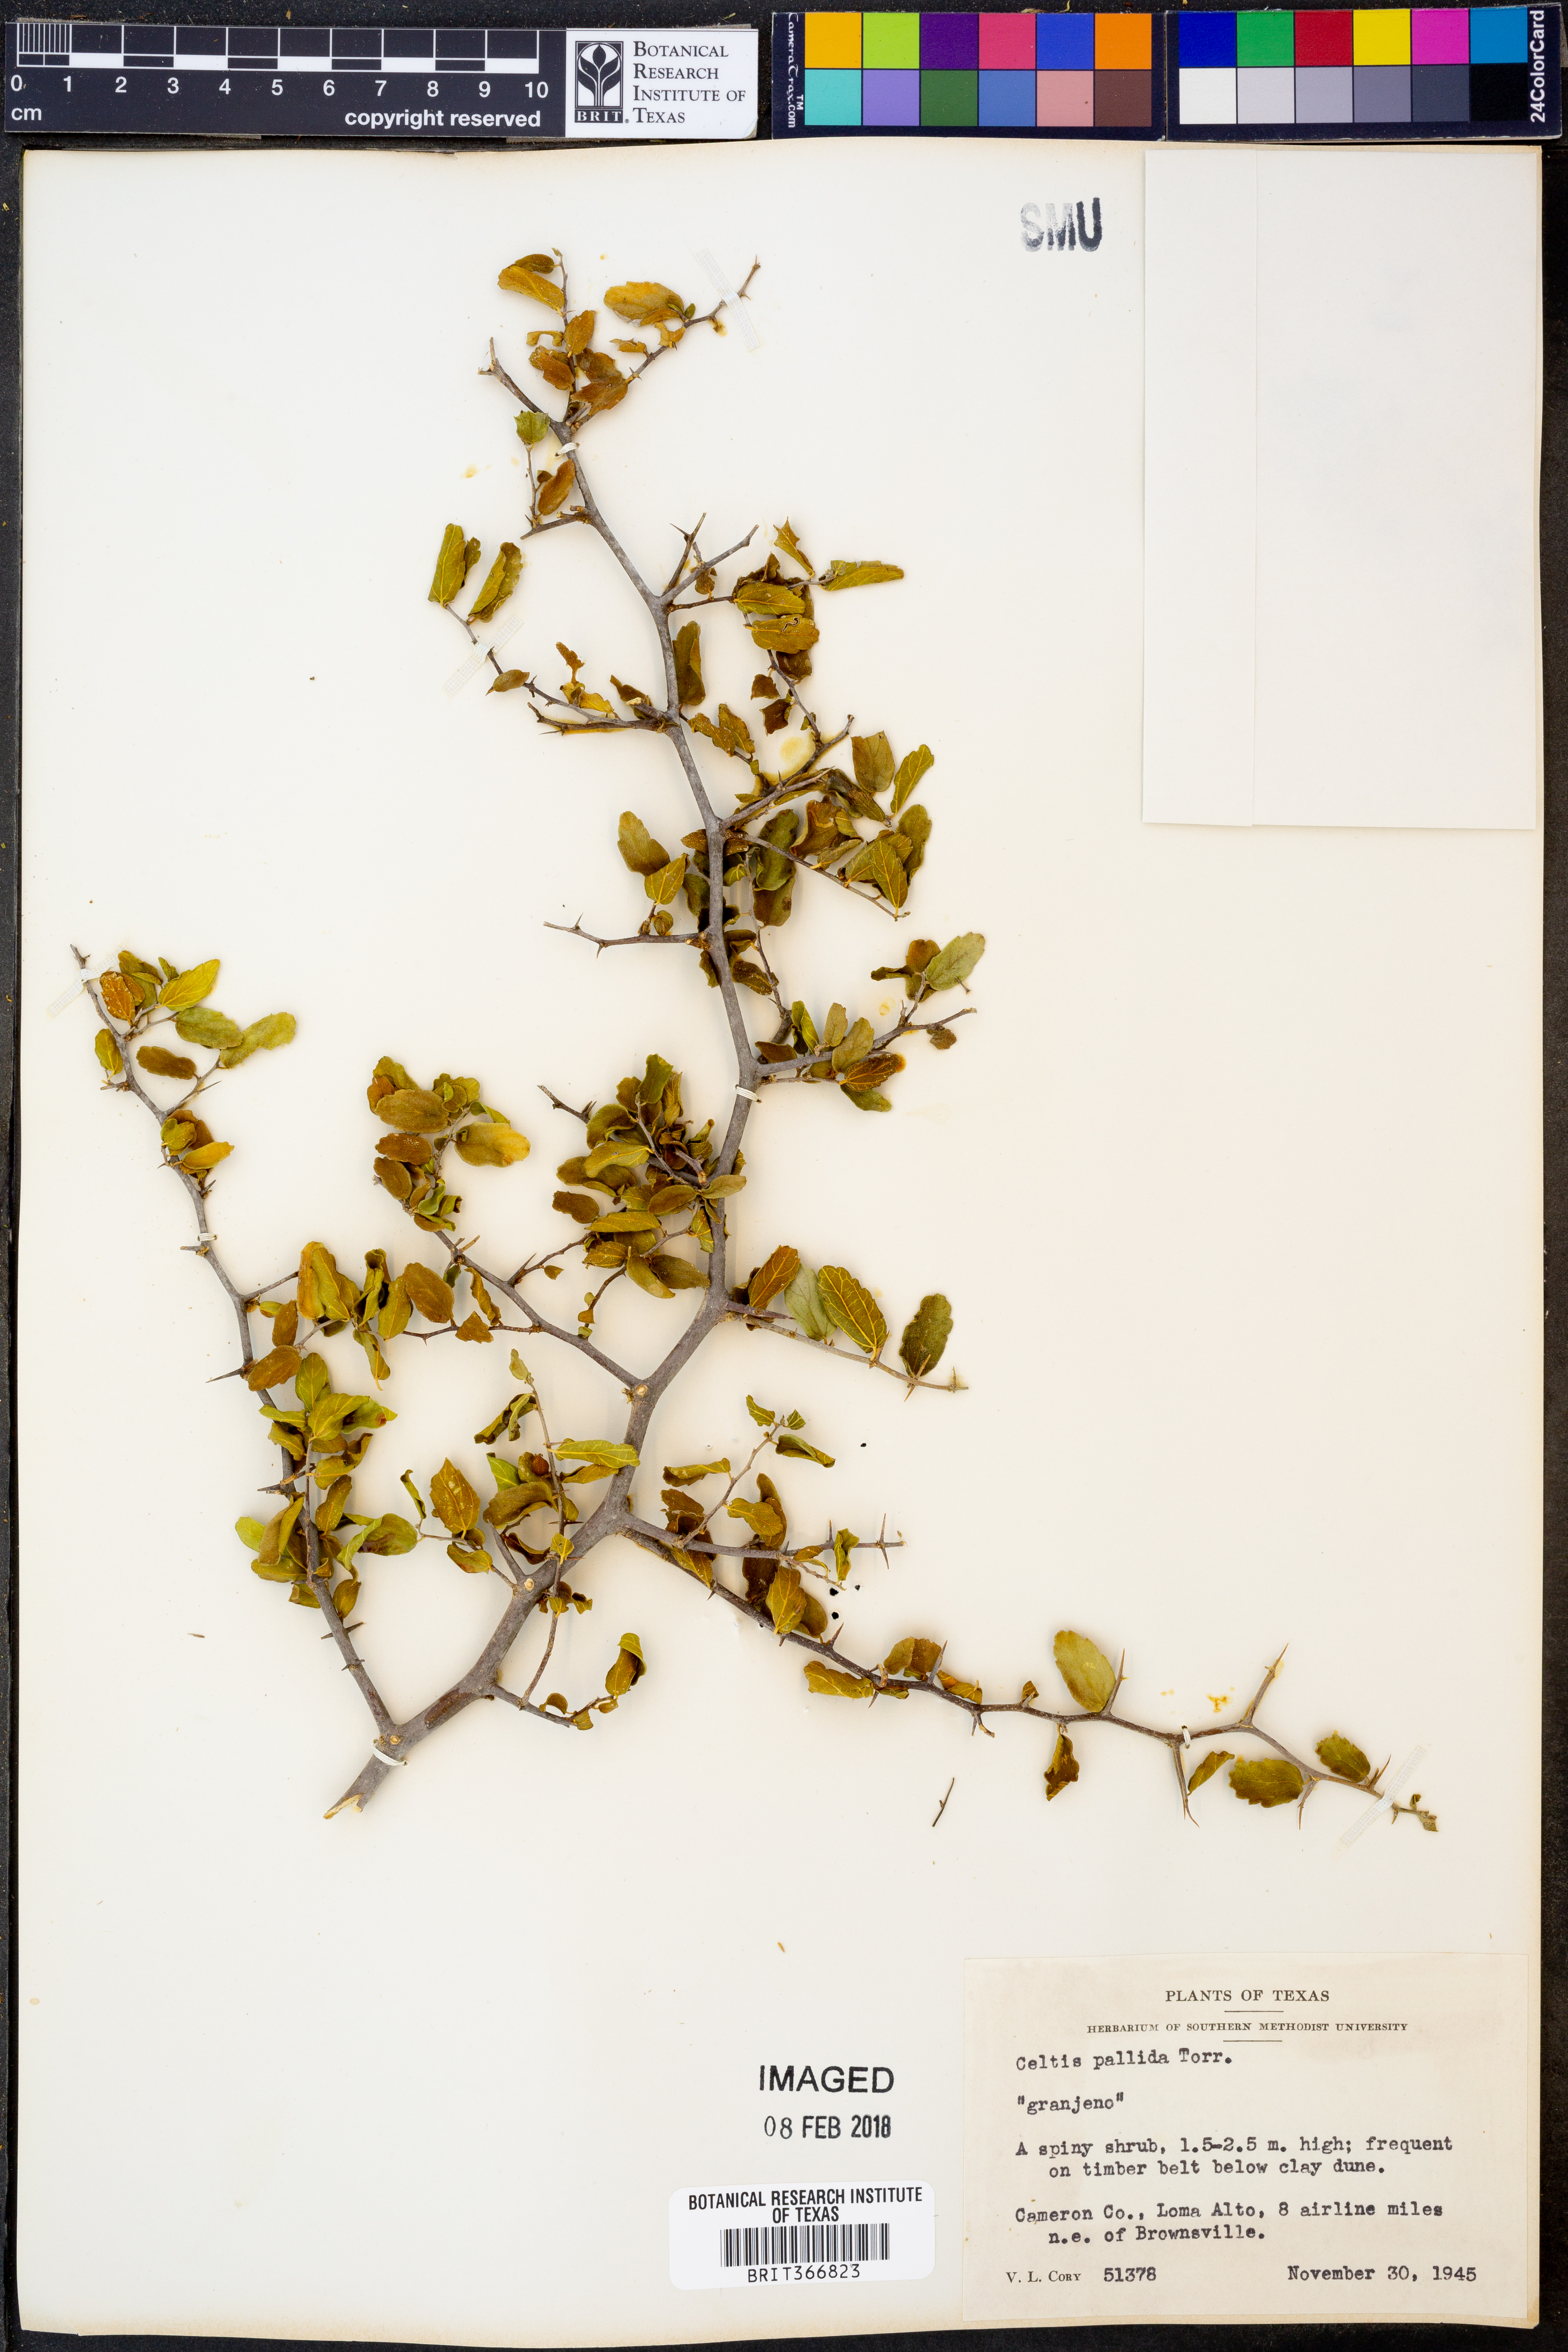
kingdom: Plantae
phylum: Tracheophyta
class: Magnoliopsida
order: Rosales
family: Cannabaceae
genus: Celtis
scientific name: Celtis pallida
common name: Desert hackberry
